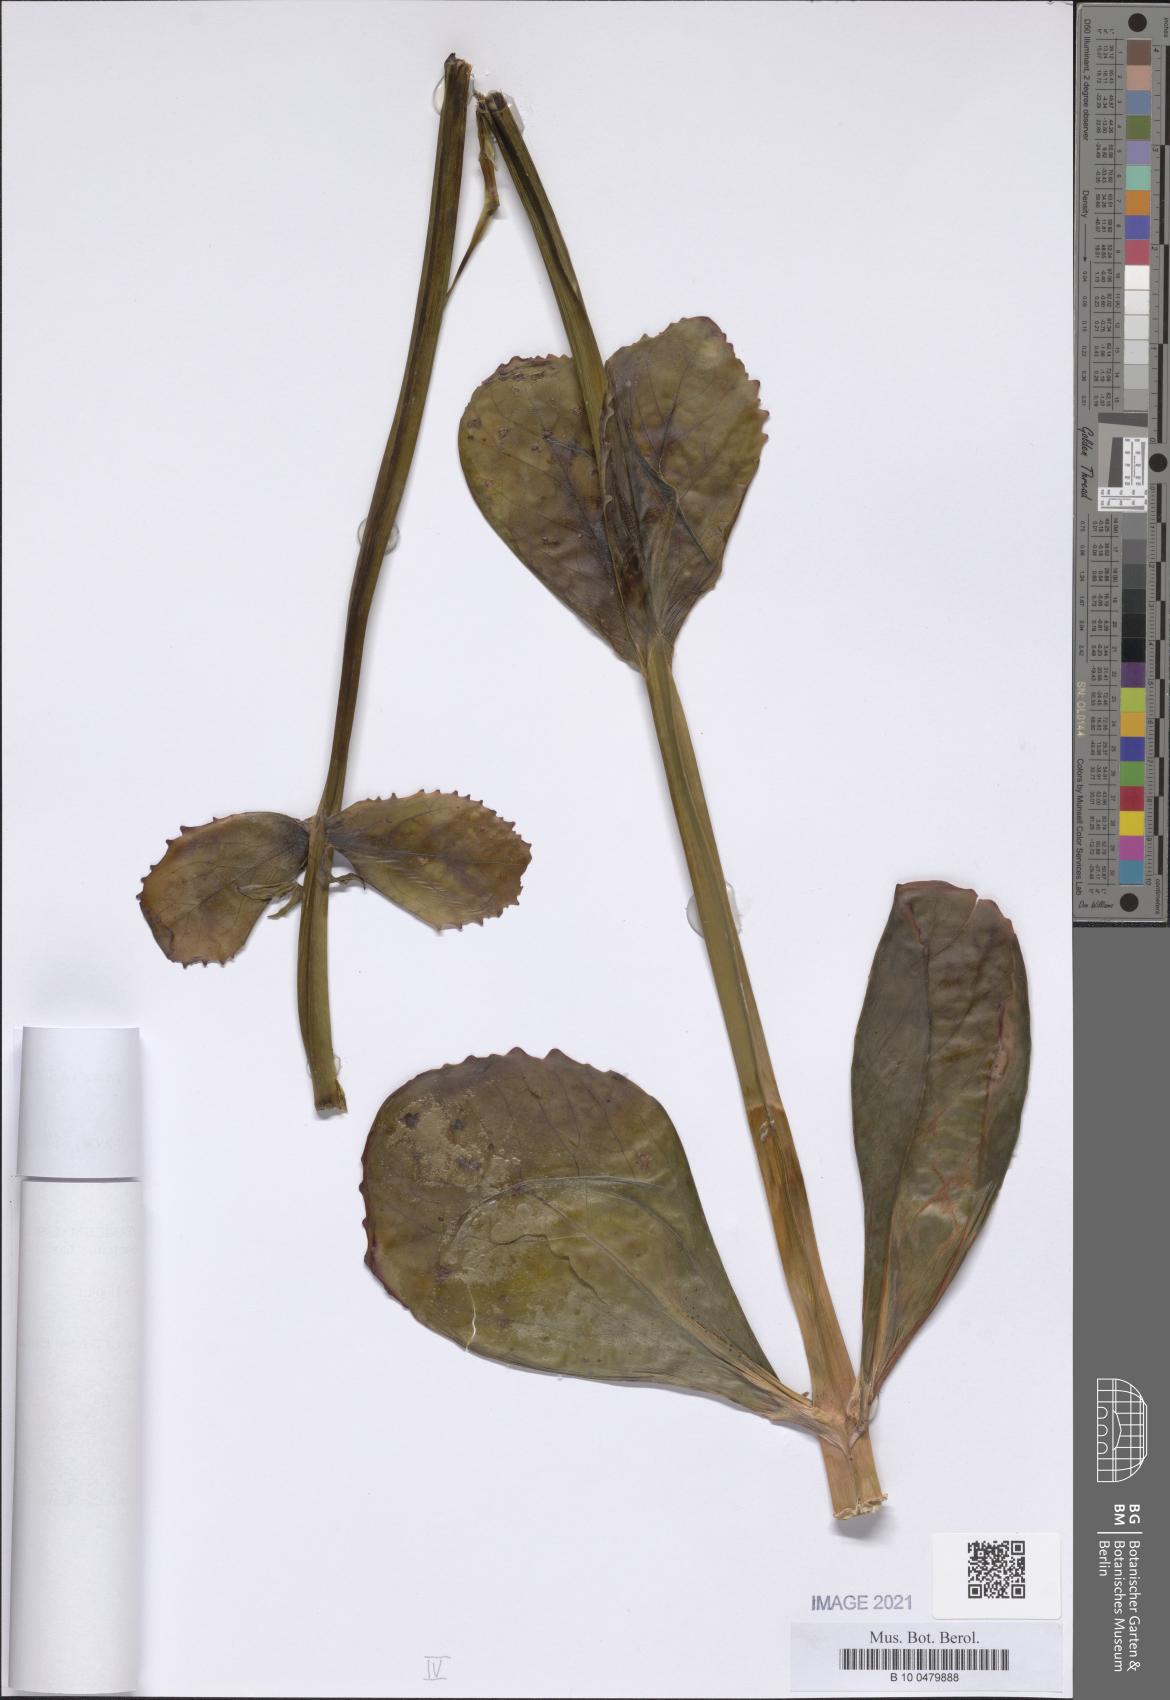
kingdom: Plantae
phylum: Tracheophyta
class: Magnoliopsida
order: Saxifragales
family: Crassulaceae
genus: Kalanchoe
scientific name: Kalanchoe marmorata
